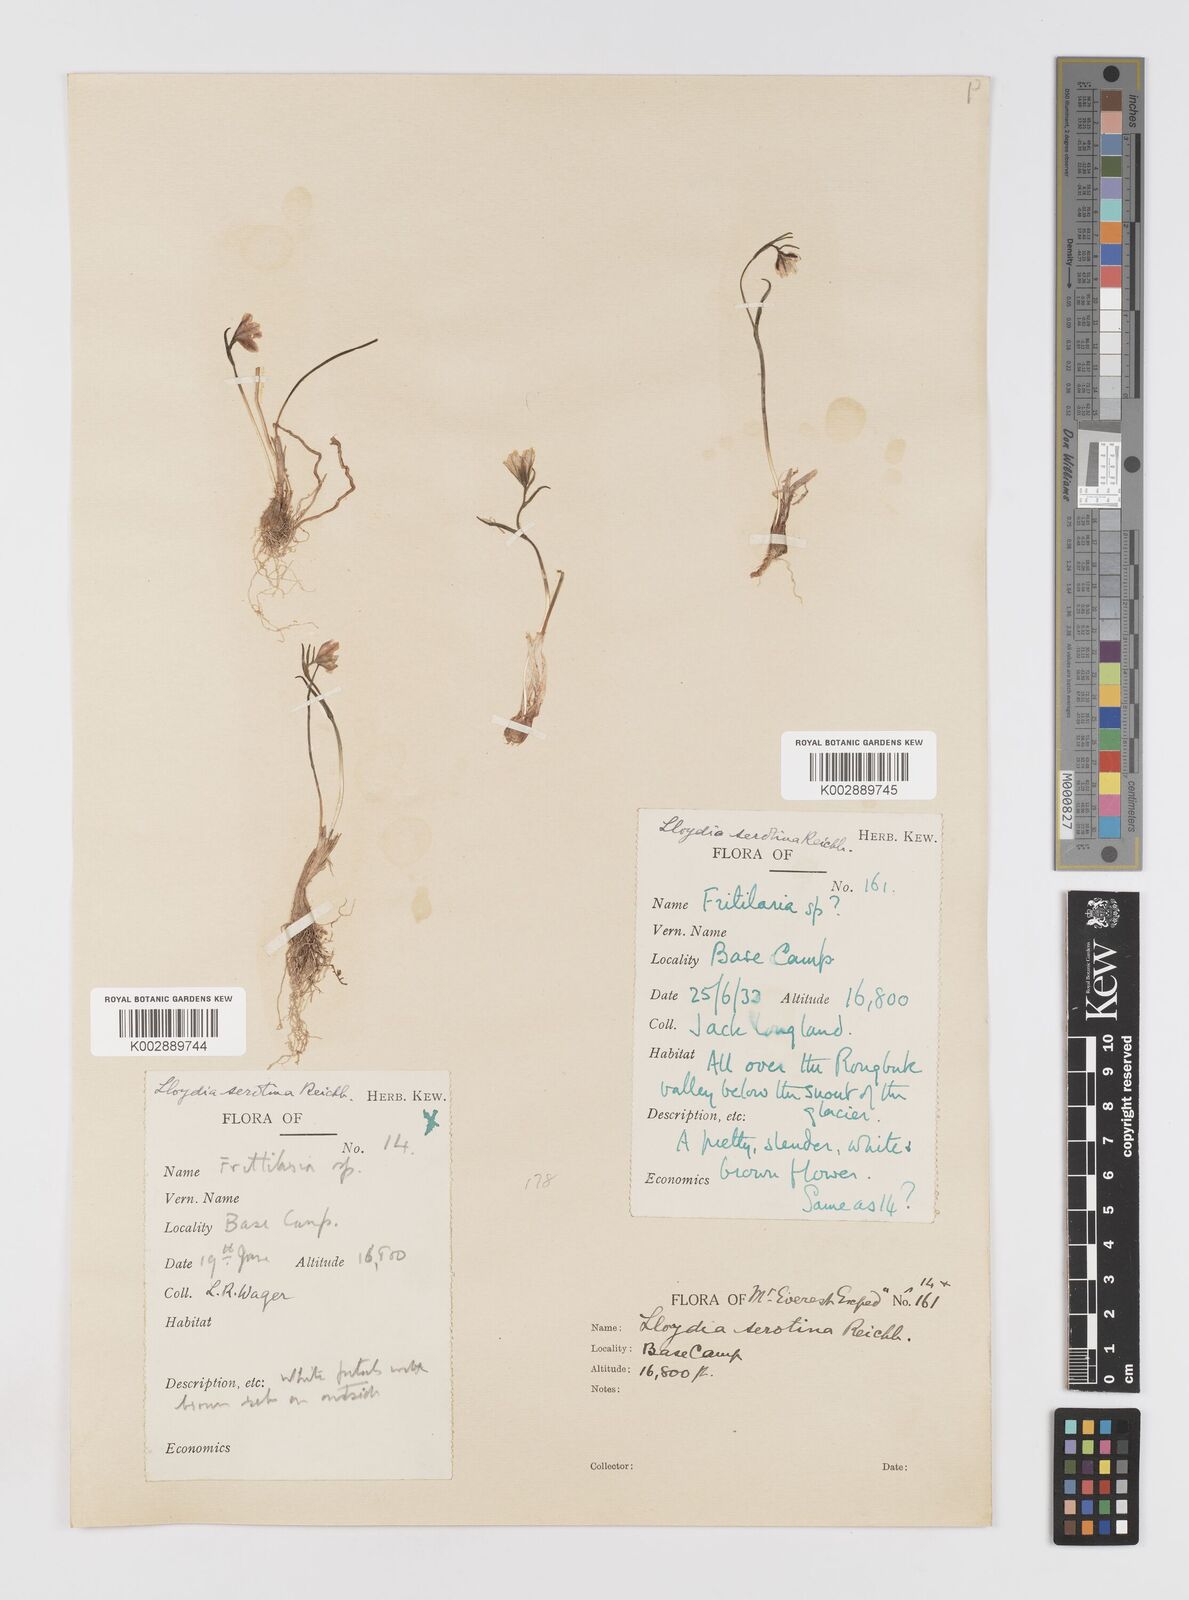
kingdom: Plantae
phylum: Tracheophyta
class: Liliopsida
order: Liliales
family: Liliaceae
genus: Gagea
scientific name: Gagea serotina
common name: Snowdon lily
